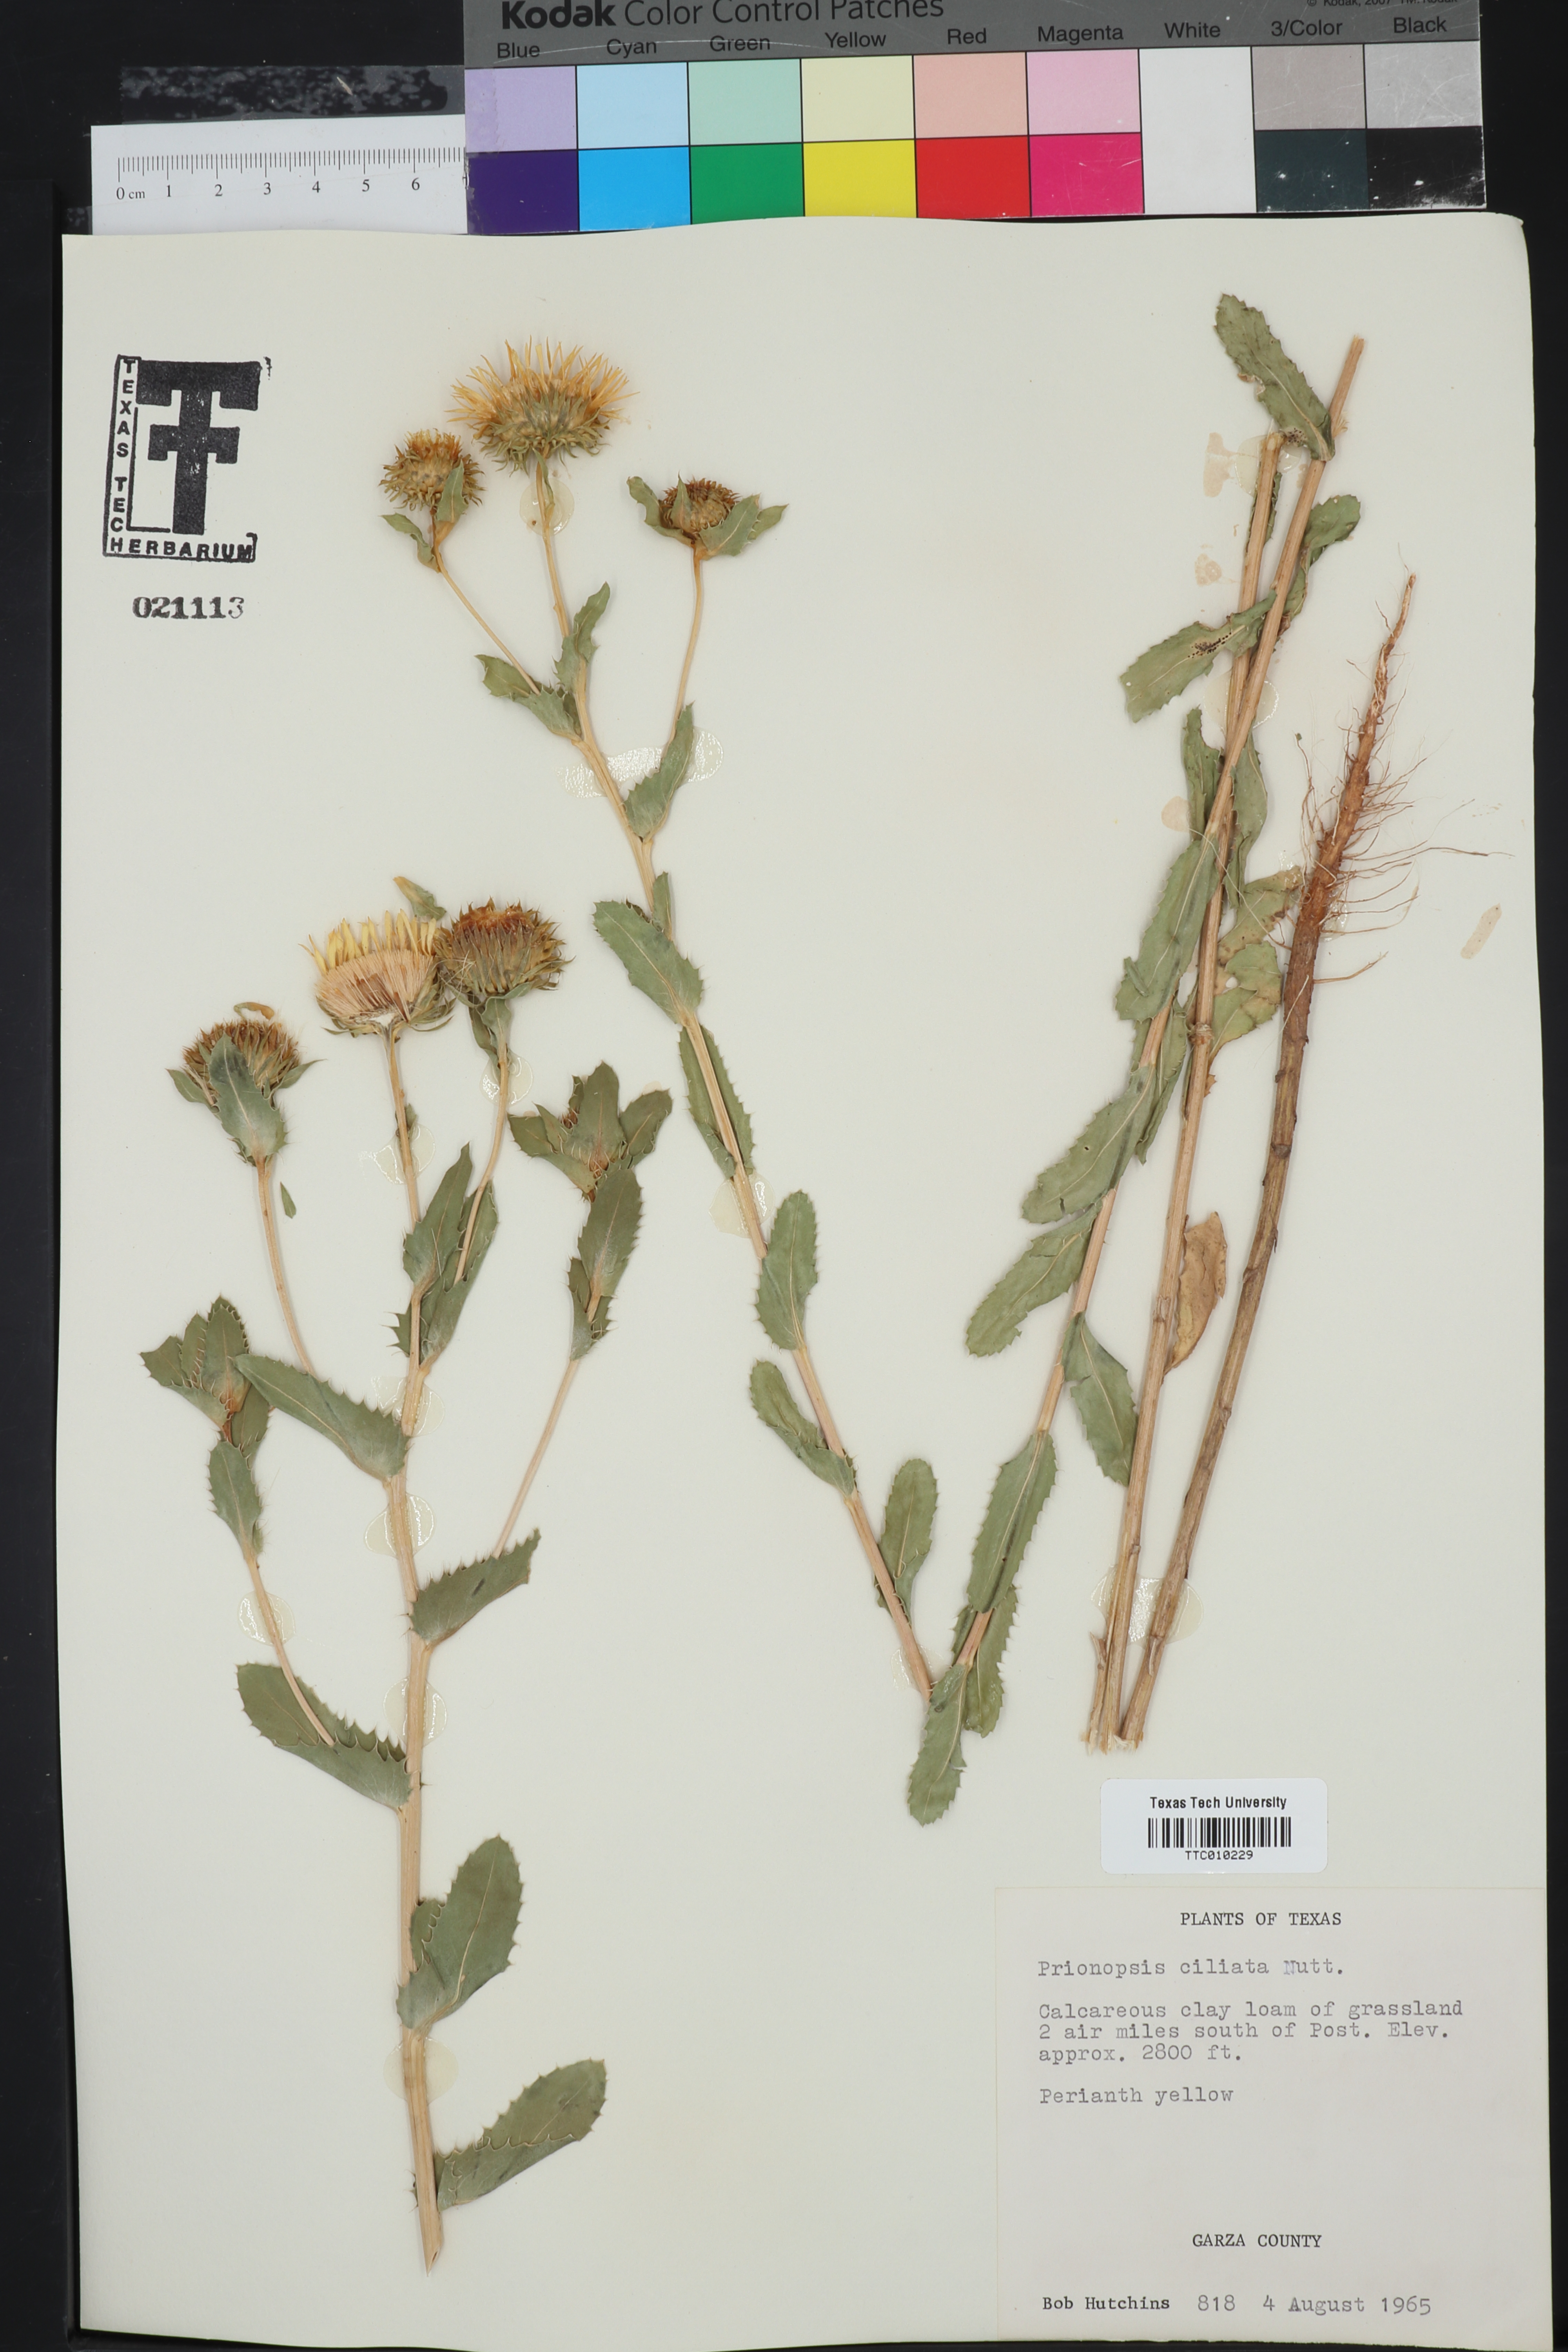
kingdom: Plantae
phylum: Tracheophyta
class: Magnoliopsida
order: Asterales
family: Asteraceae
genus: Grindelia
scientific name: Grindelia ciliata
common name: Goldenweed
